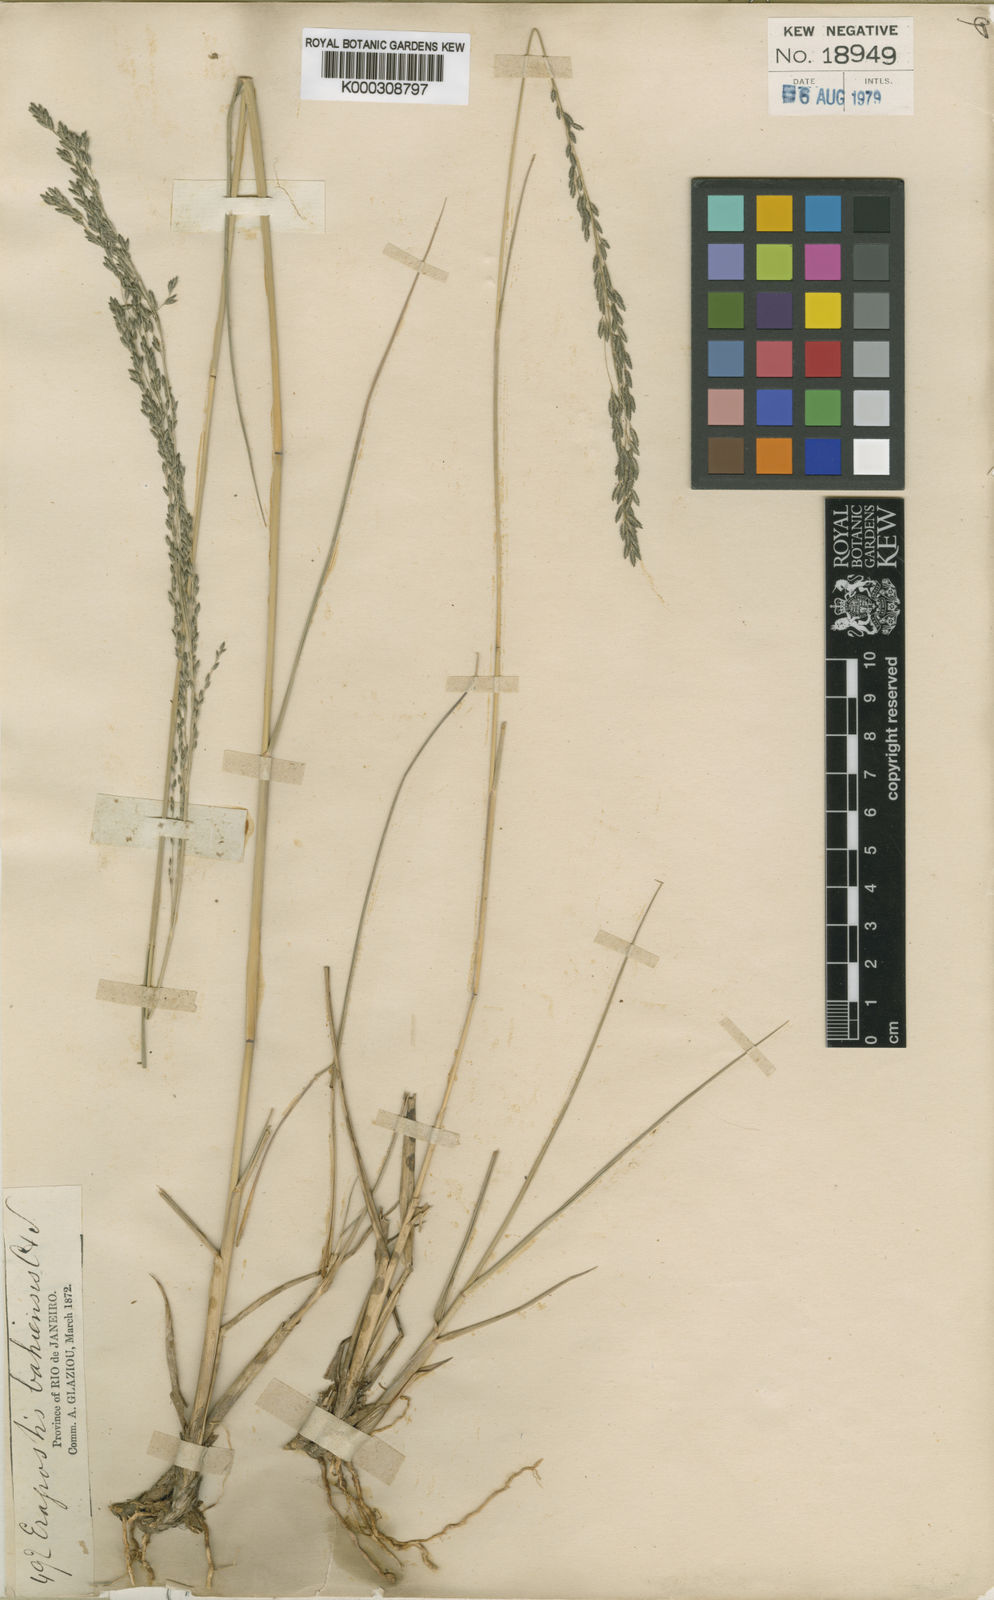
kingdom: Plantae
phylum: Tracheophyta
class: Liliopsida
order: Poales
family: Poaceae
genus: Eragrostis
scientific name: Eragrostis bahiensis
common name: Bahia lovegrass
